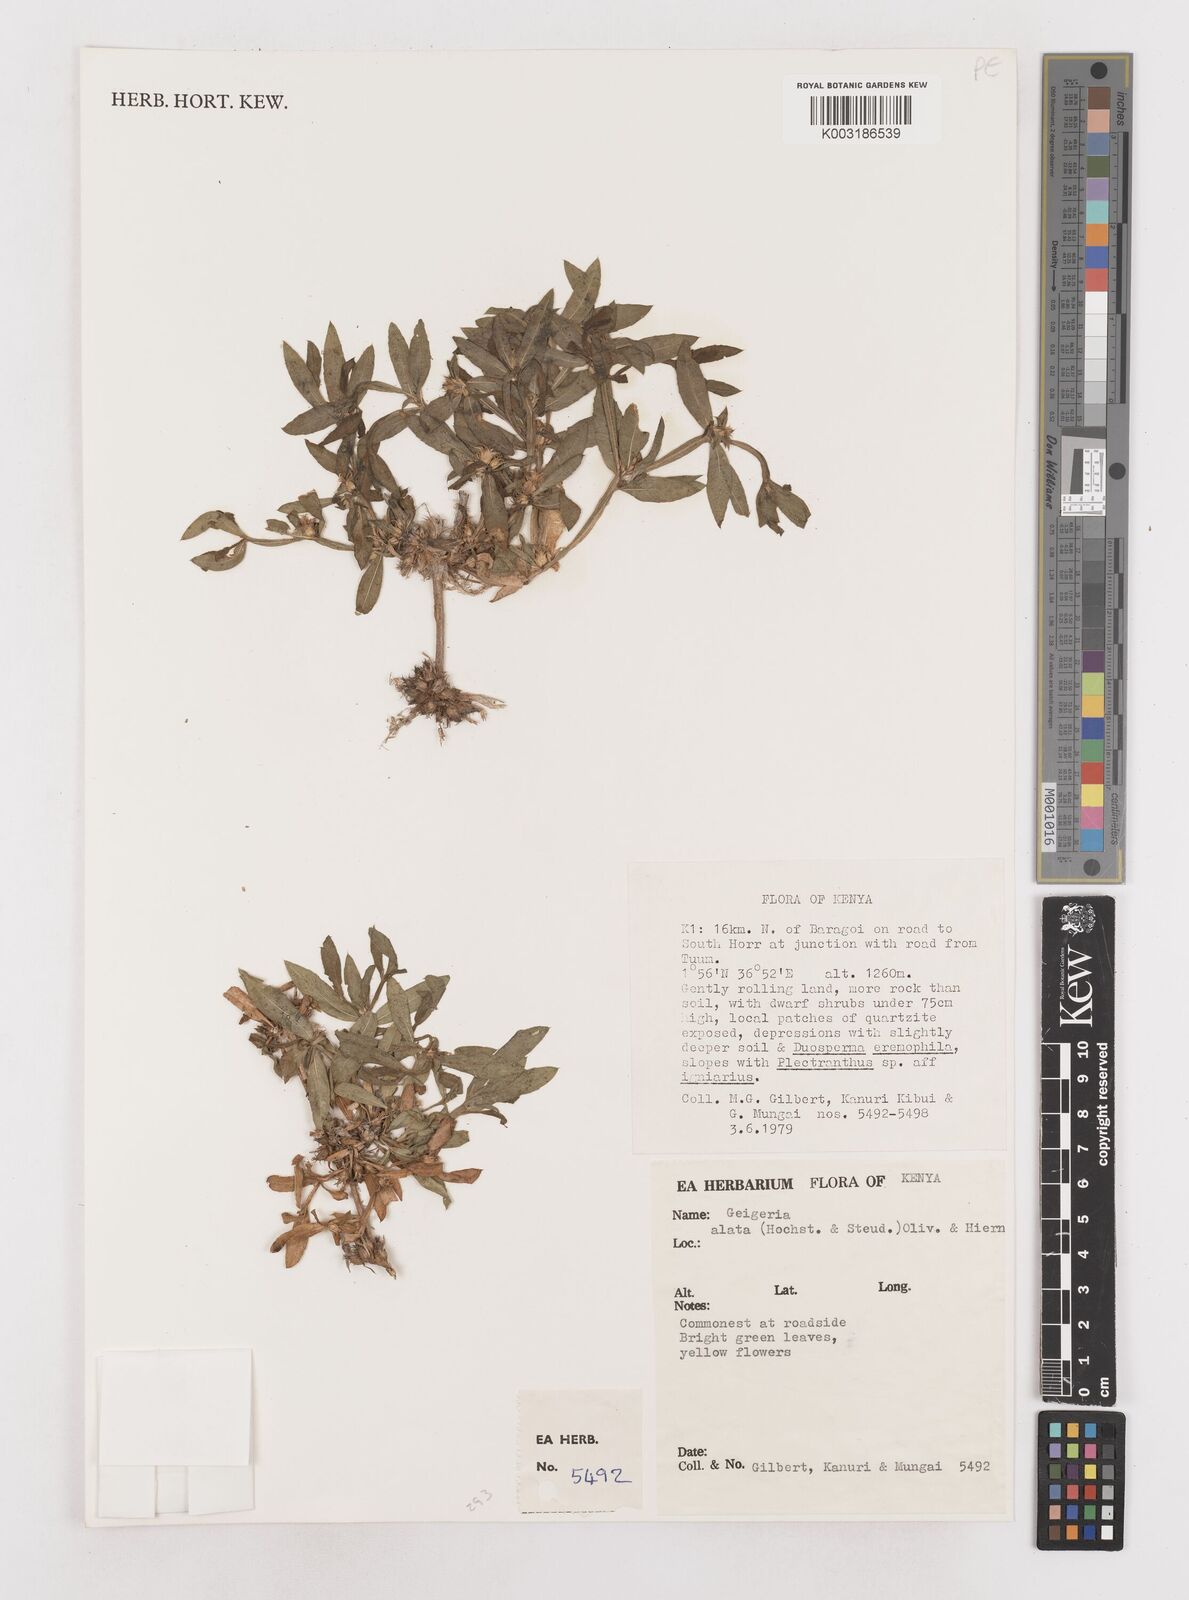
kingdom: Plantae
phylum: Tracheophyta
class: Magnoliopsida
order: Asterales
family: Asteraceae
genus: Geigeria
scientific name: Geigeria alata
